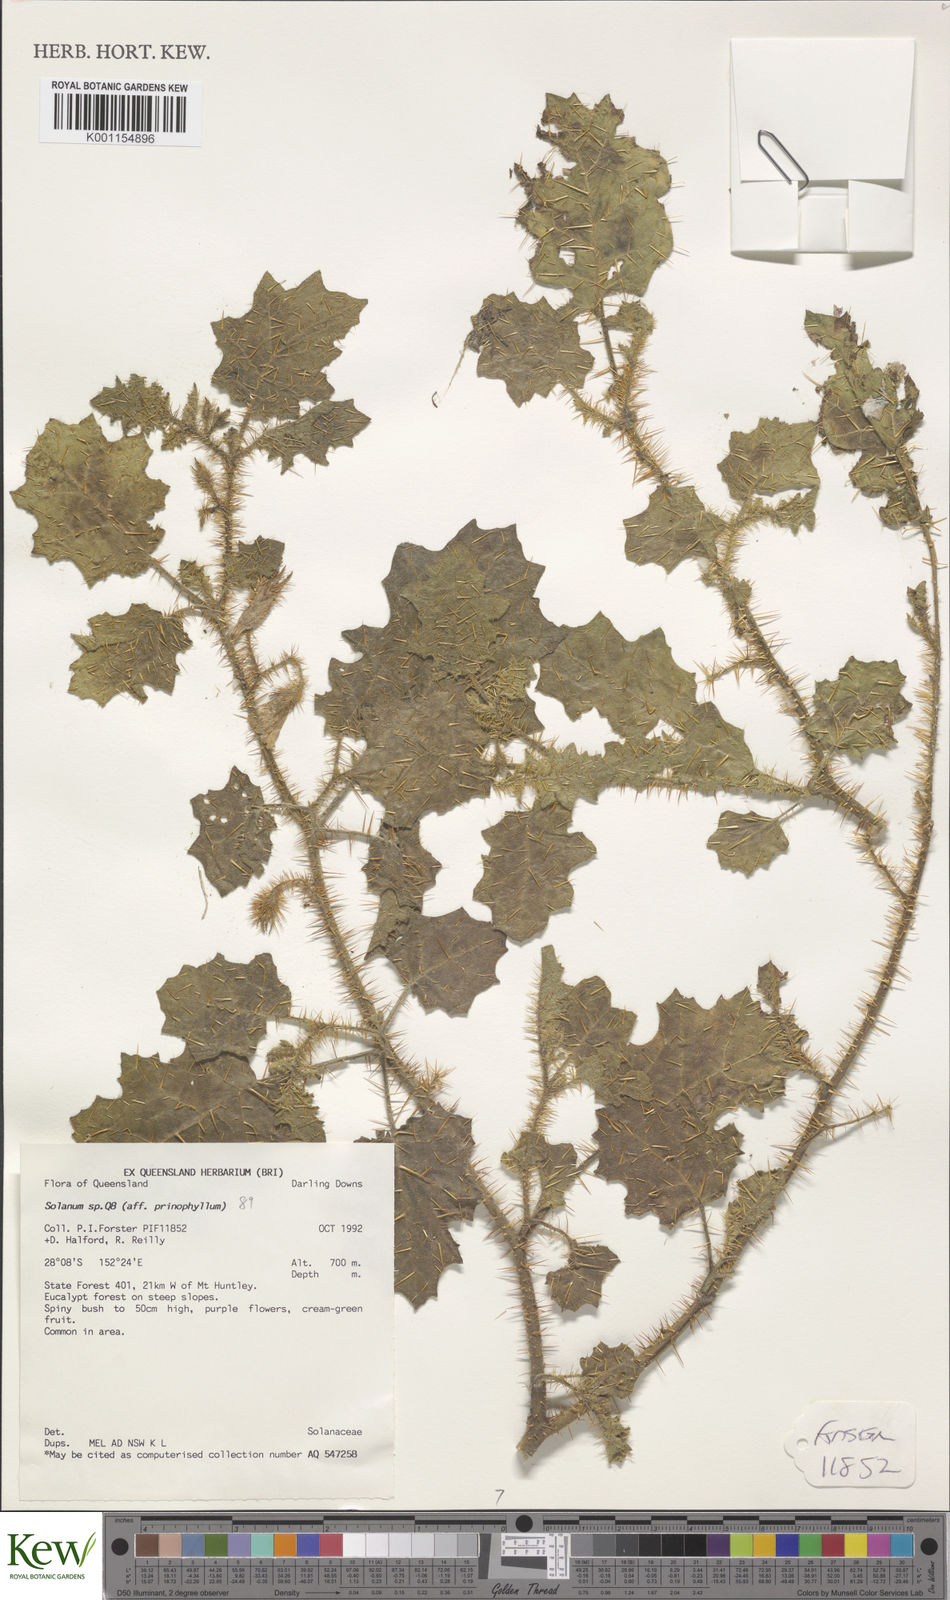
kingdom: Plantae
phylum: Tracheophyta
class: Magnoliopsida
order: Solanales
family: Solanaceae
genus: Solanum
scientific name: Solanum prinophyllum
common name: Forest nightshade
